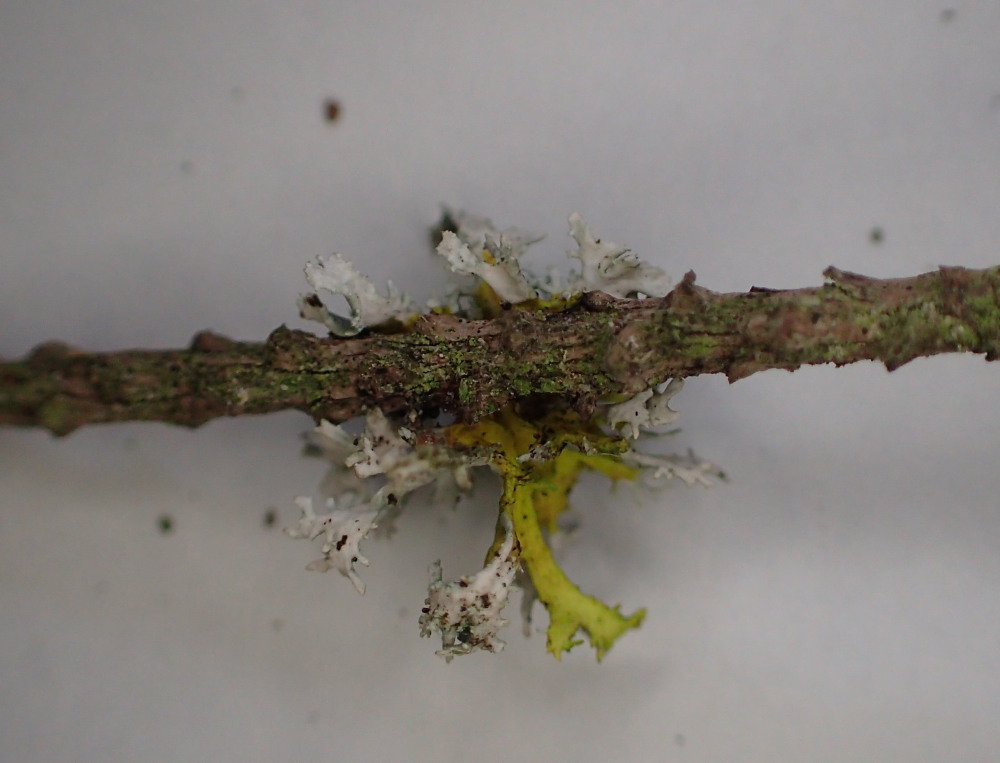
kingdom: Fungi
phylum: Ascomycota
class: Lecanoromycetes
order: Lecanorales
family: Parmeliaceae
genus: Evernia
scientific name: Evernia prunastri
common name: almindelig slåenlav
